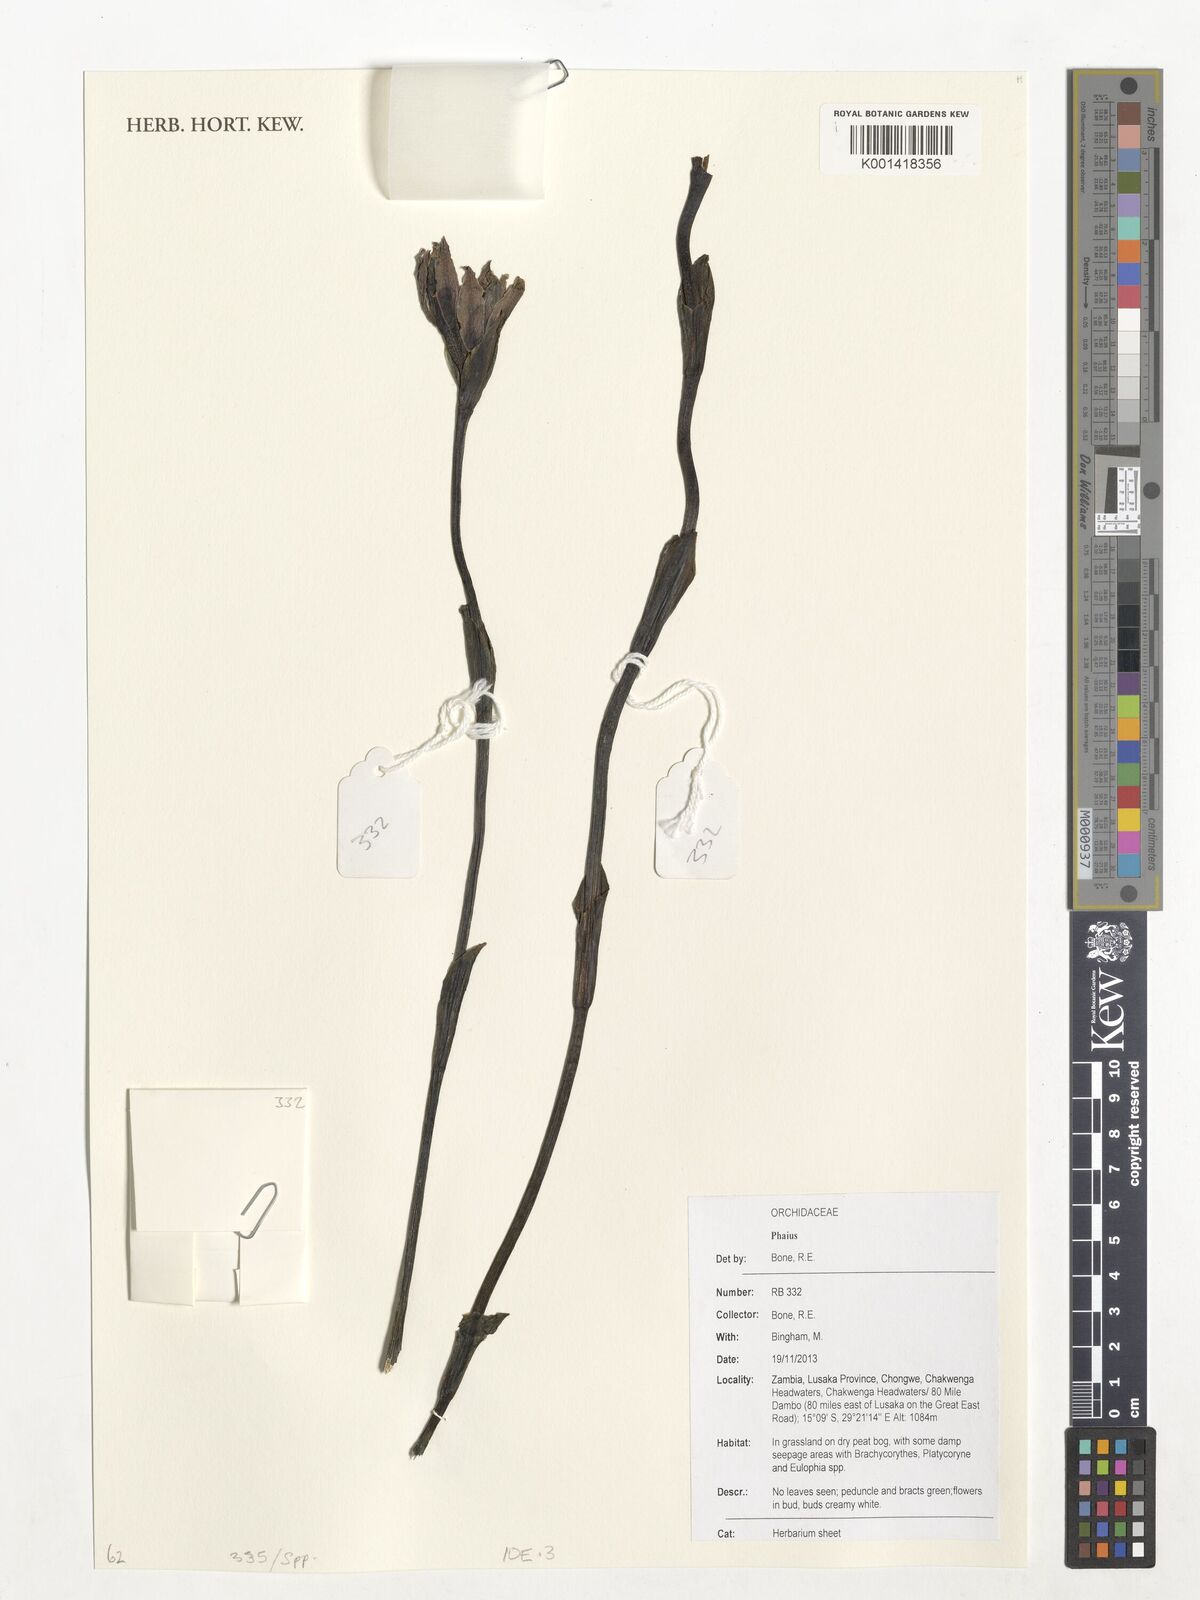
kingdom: Plantae
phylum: Tracheophyta
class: Liliopsida
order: Asparagales
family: Orchidaceae
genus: Calanthe
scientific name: Calanthe
